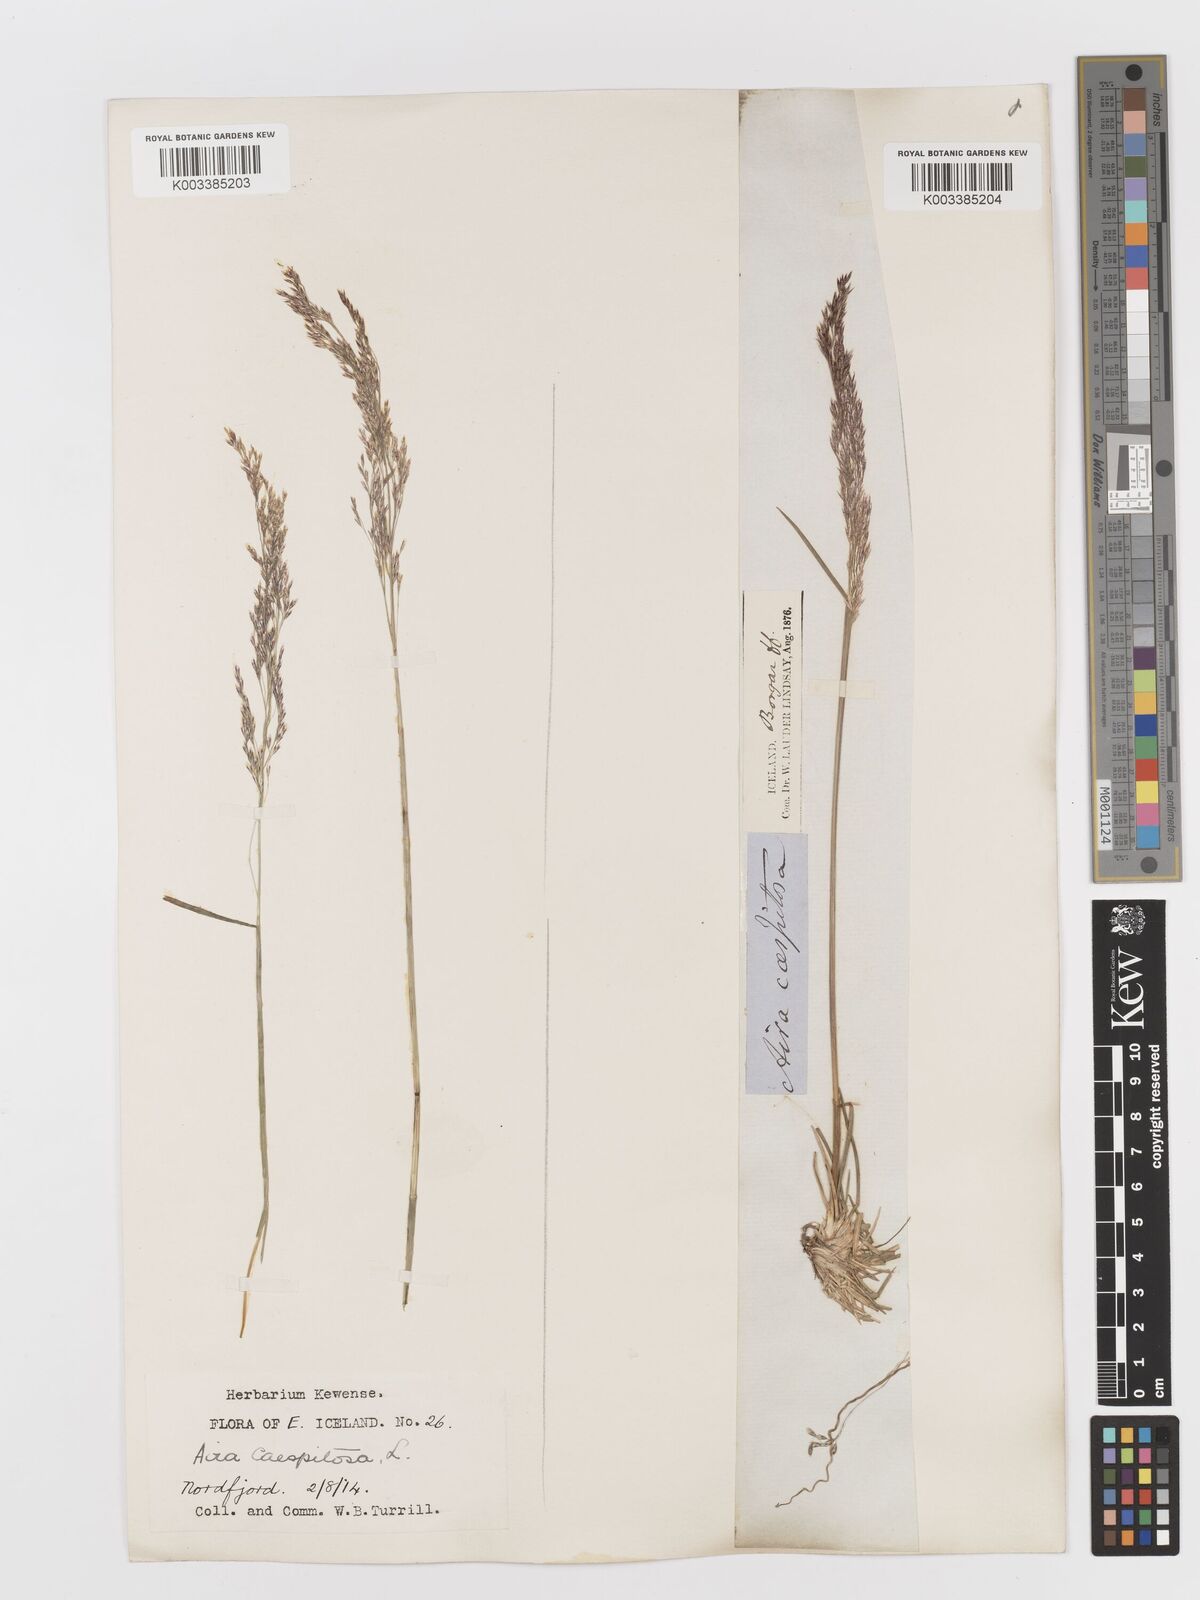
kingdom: Plantae
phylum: Tracheophyta
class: Liliopsida
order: Poales
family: Poaceae
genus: Deschampsia
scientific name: Deschampsia cespitosa
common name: Tufted hair-grass
